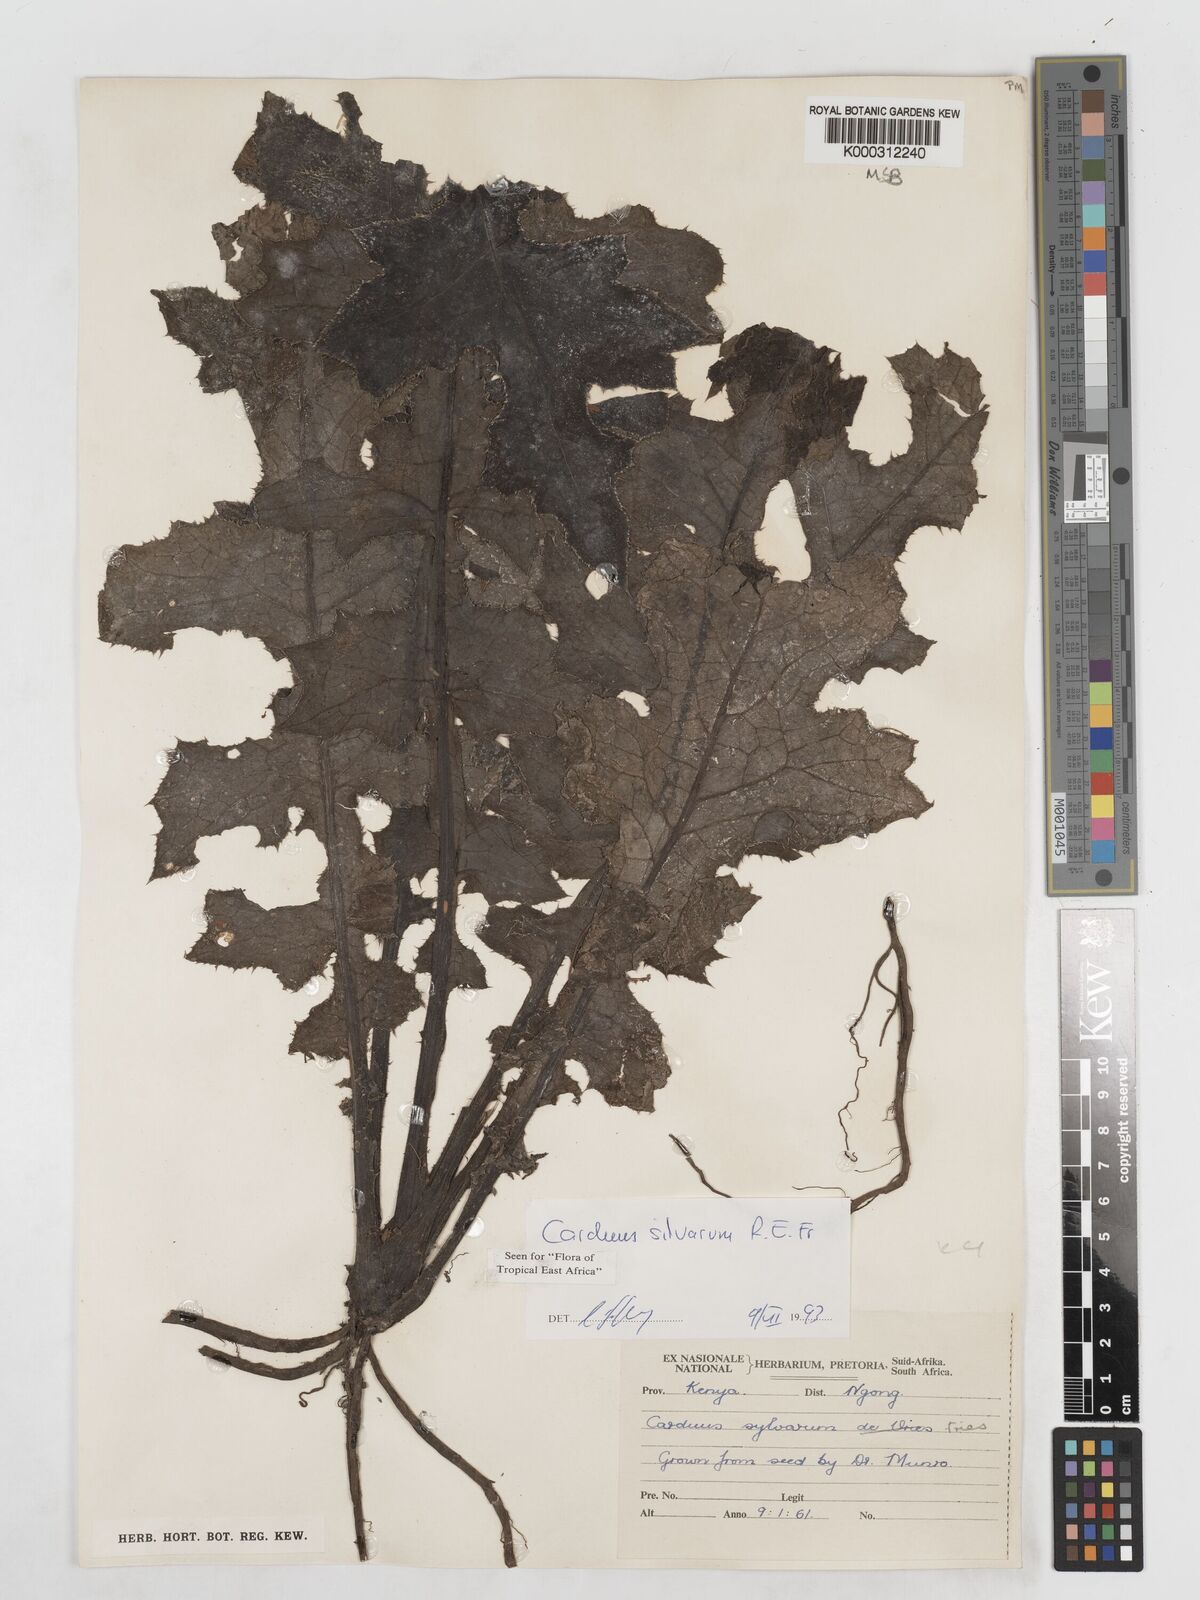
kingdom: Plantae
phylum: Tracheophyta
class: Magnoliopsida
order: Asterales
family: Asteraceae
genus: Carduus
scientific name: Carduus silvarum
